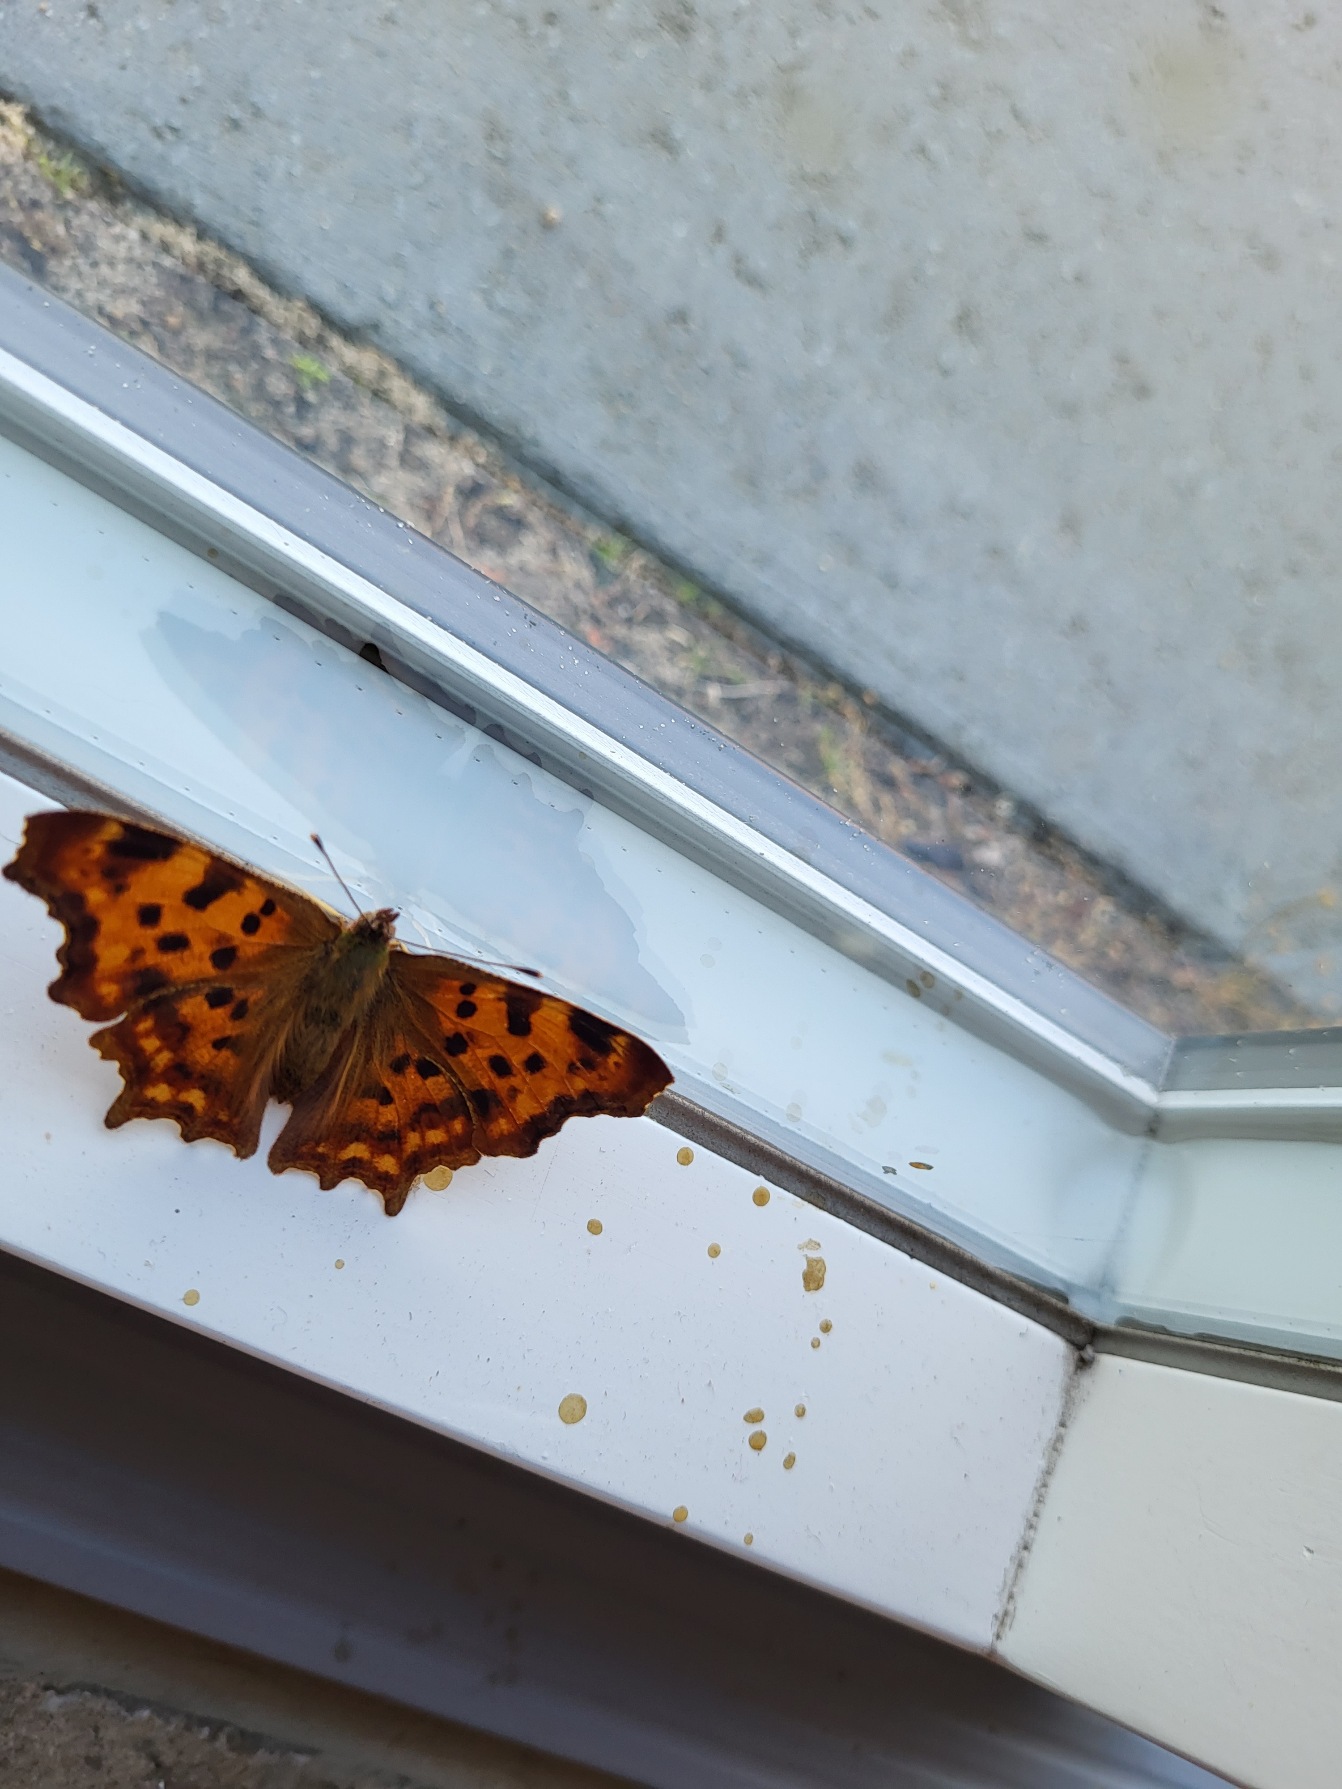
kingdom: Animalia
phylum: Arthropoda
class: Insecta
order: Lepidoptera
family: Nymphalidae
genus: Polygonia
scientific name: Polygonia c-album
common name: Det hvide C
